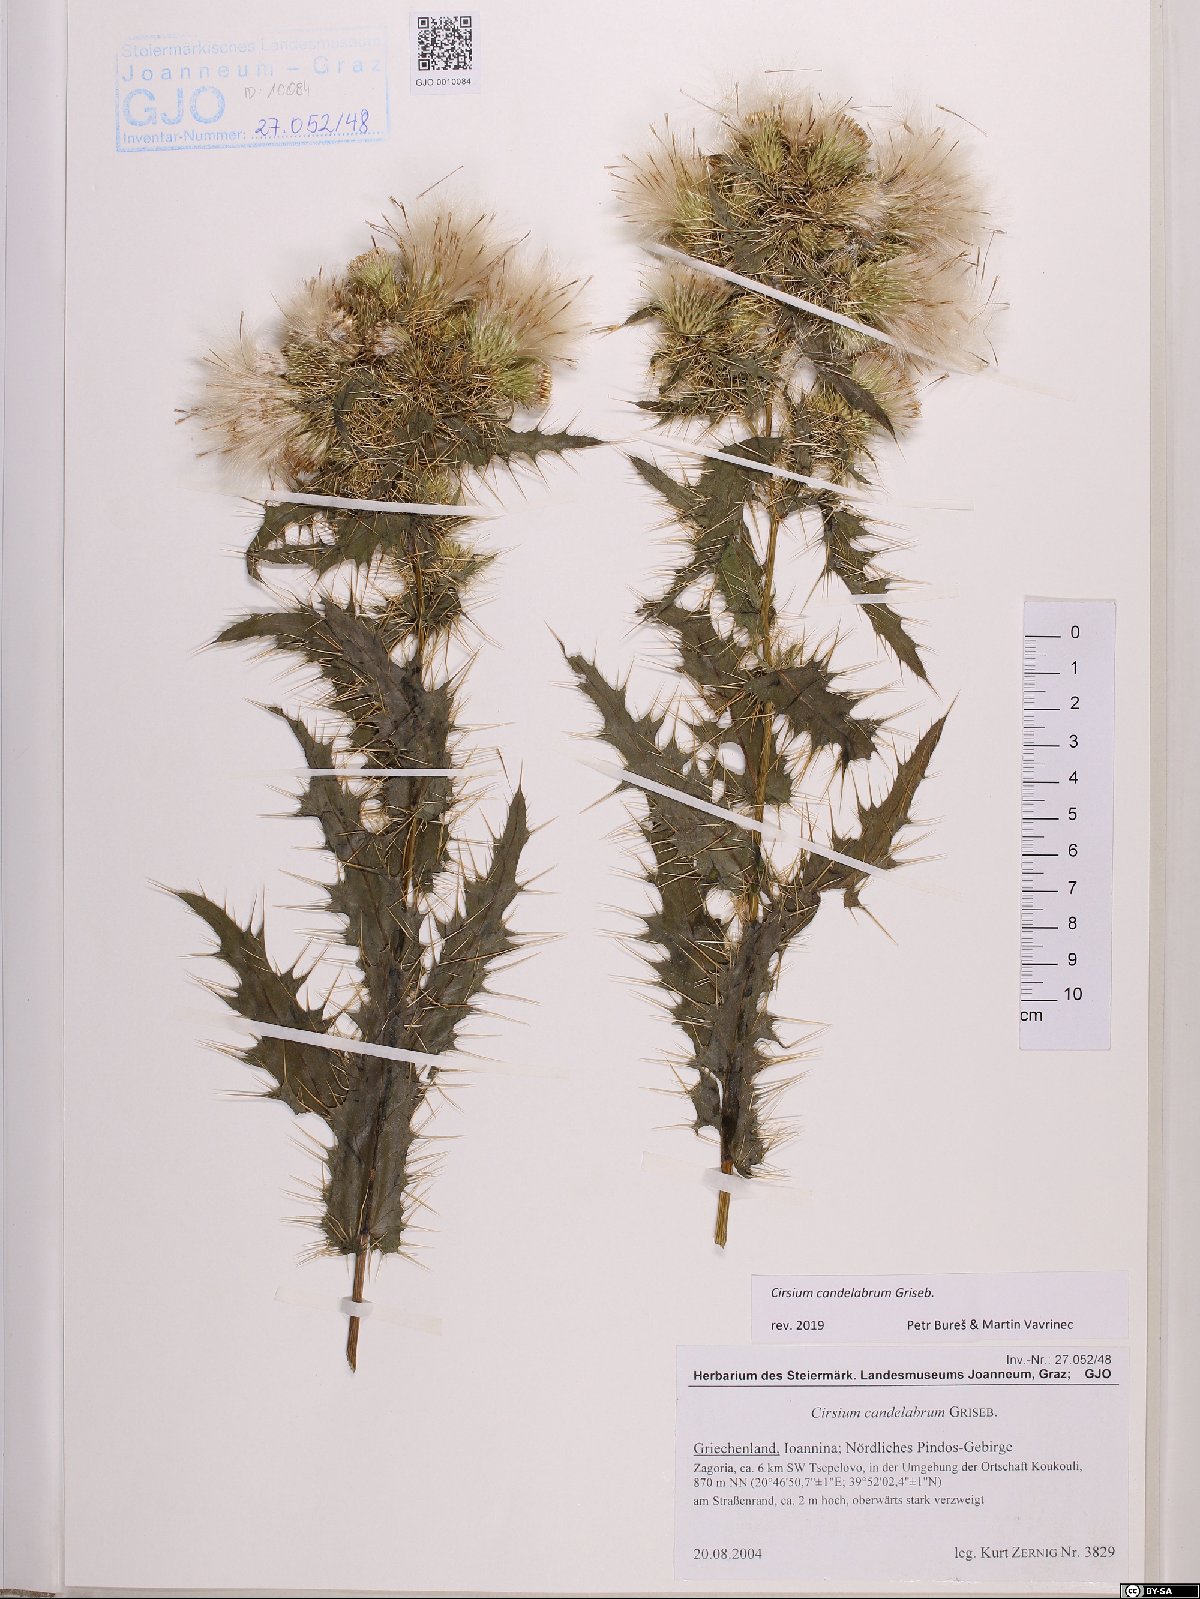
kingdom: Plantae
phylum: Tracheophyta
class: Magnoliopsida
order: Asterales
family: Asteraceae
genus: Cirsium
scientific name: Cirsium candelabrum
